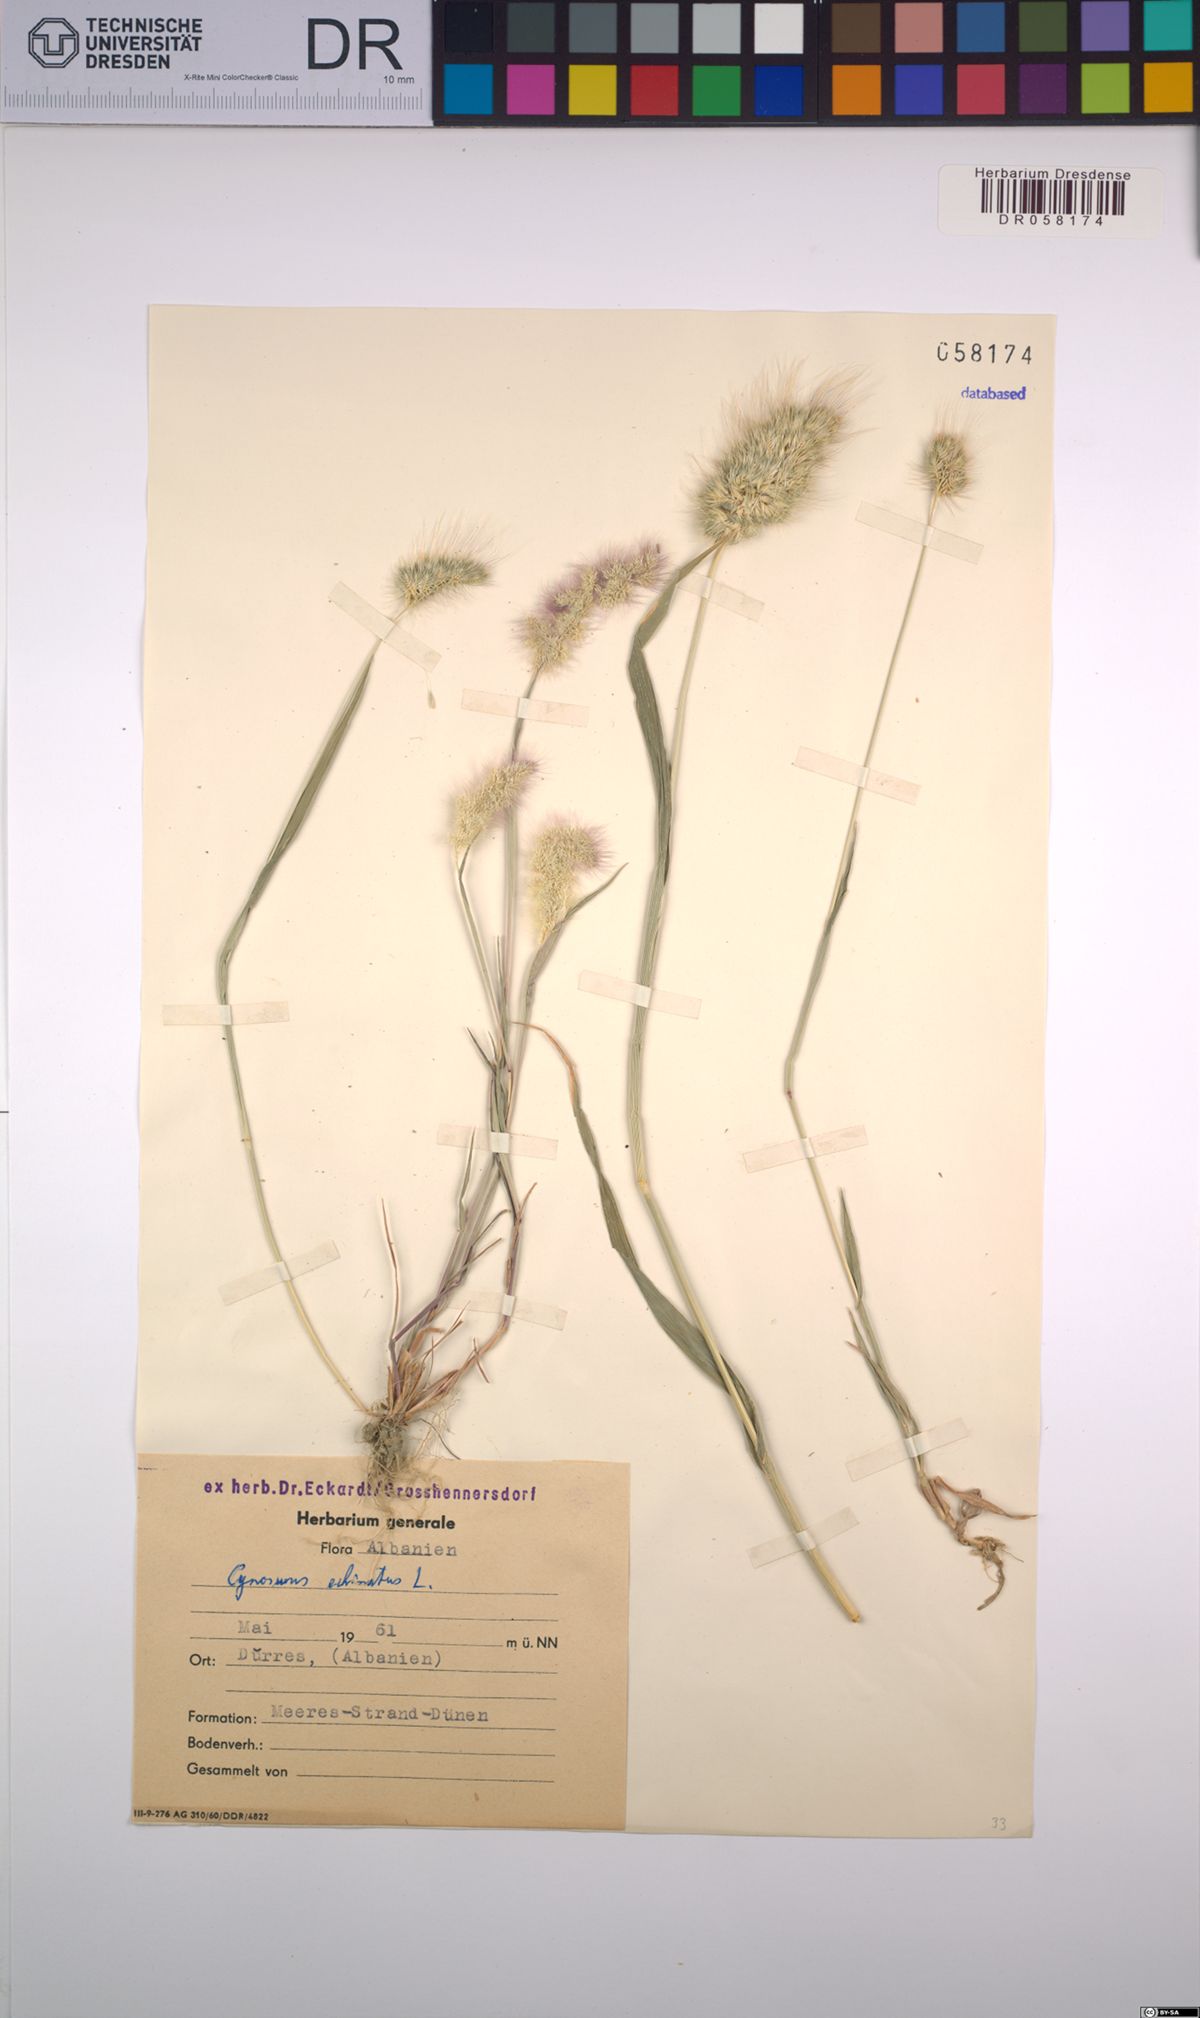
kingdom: Plantae
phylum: Tracheophyta
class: Liliopsida
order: Poales
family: Poaceae
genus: Cynosurus
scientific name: Cynosurus echinatus
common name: Rough dog's-tail
